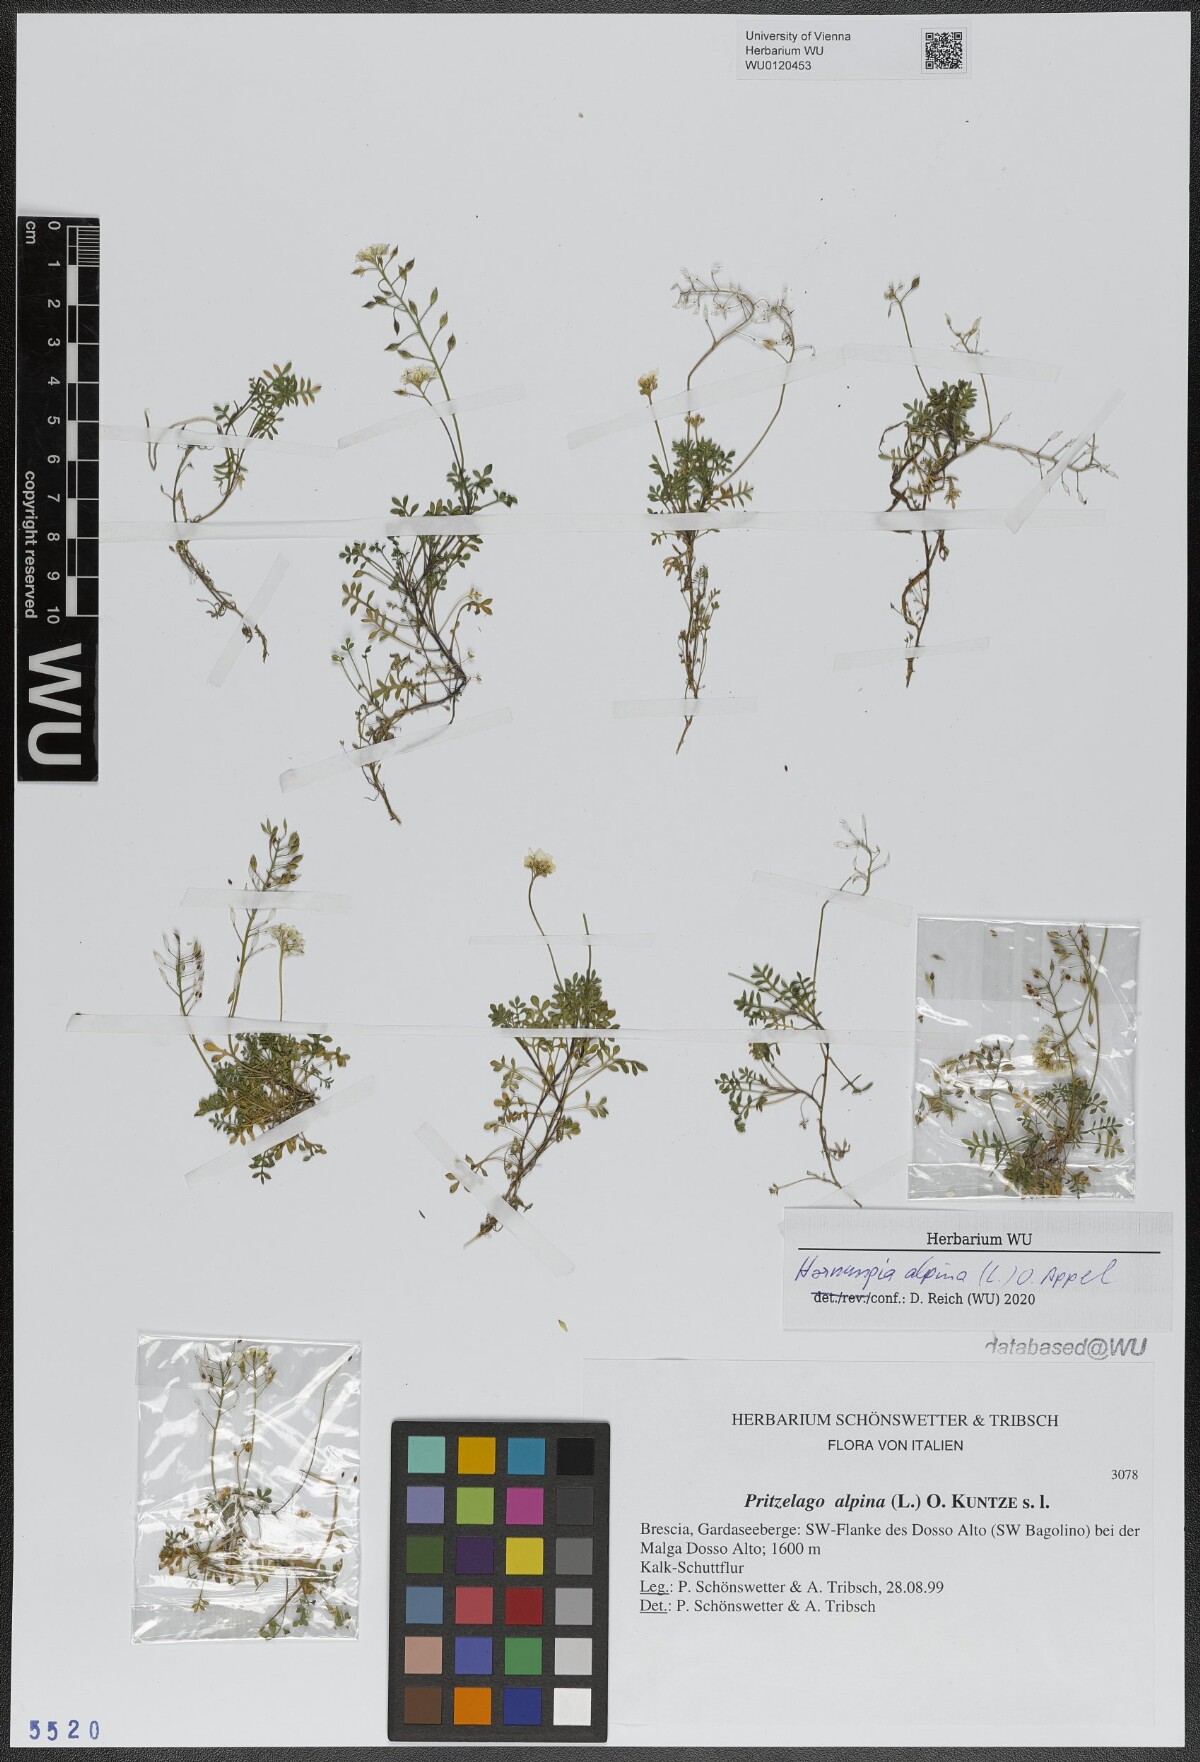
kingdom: Plantae
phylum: Tracheophyta
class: Magnoliopsida
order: Brassicales
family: Brassicaceae
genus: Hornungia
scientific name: Hornungia alpina
